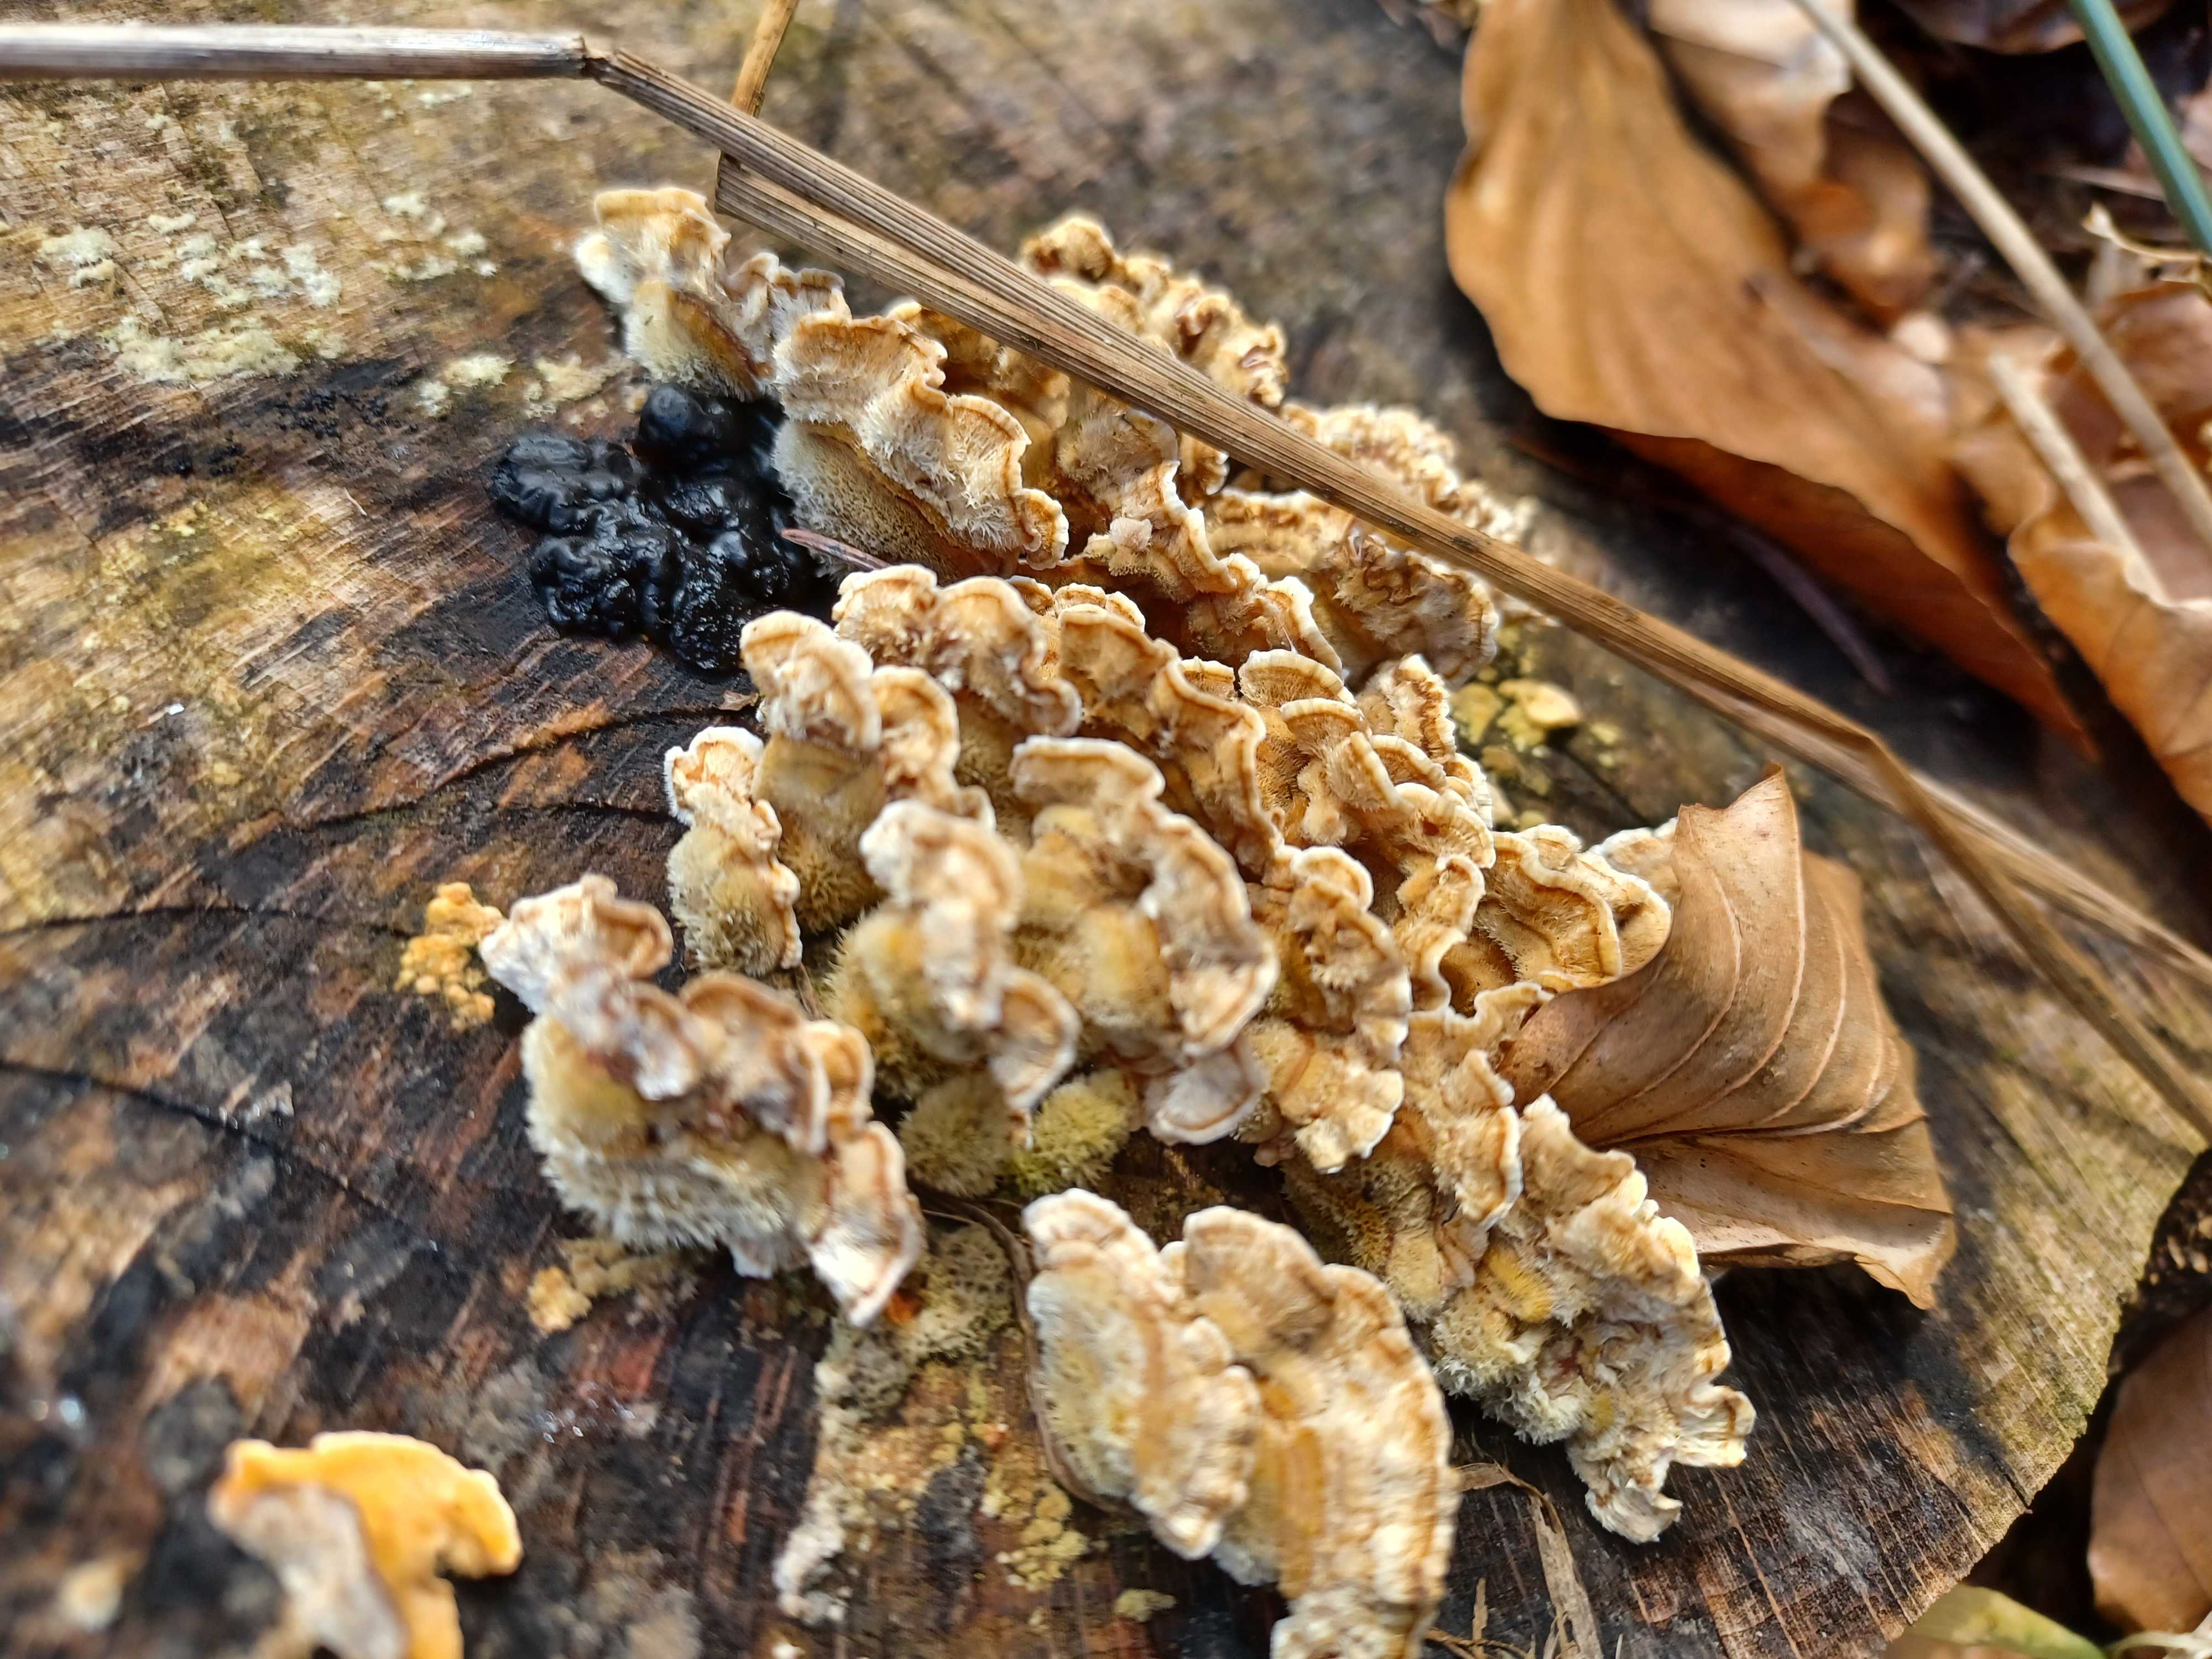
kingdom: Fungi
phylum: Basidiomycota
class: Agaricomycetes
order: Russulales
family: Stereaceae
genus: Stereum
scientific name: Stereum hirsutum
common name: håret lædersvamp
